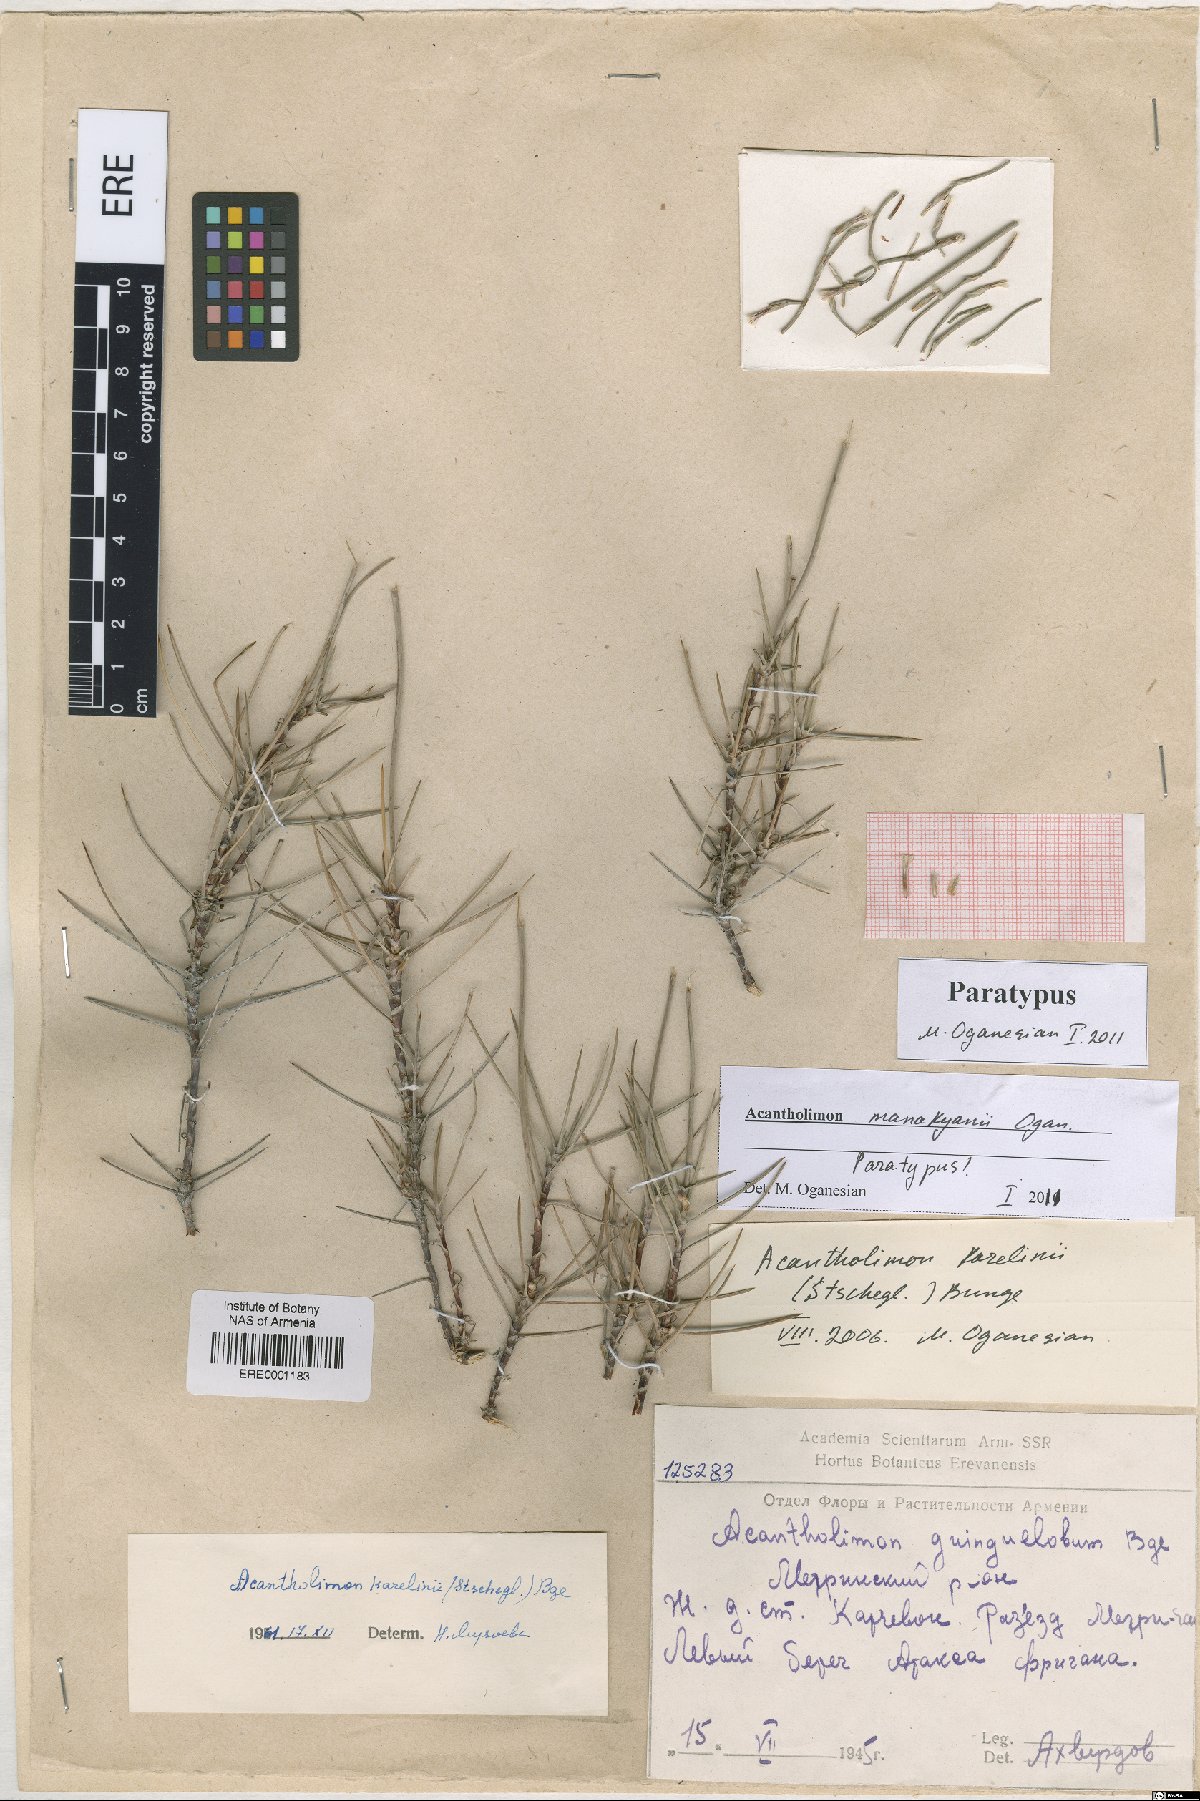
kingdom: Plantae
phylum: Tracheophyta
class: Magnoliopsida
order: Caryophyllales
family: Plumbaginaceae
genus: Acantholimon
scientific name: Acantholimon manakyanii
